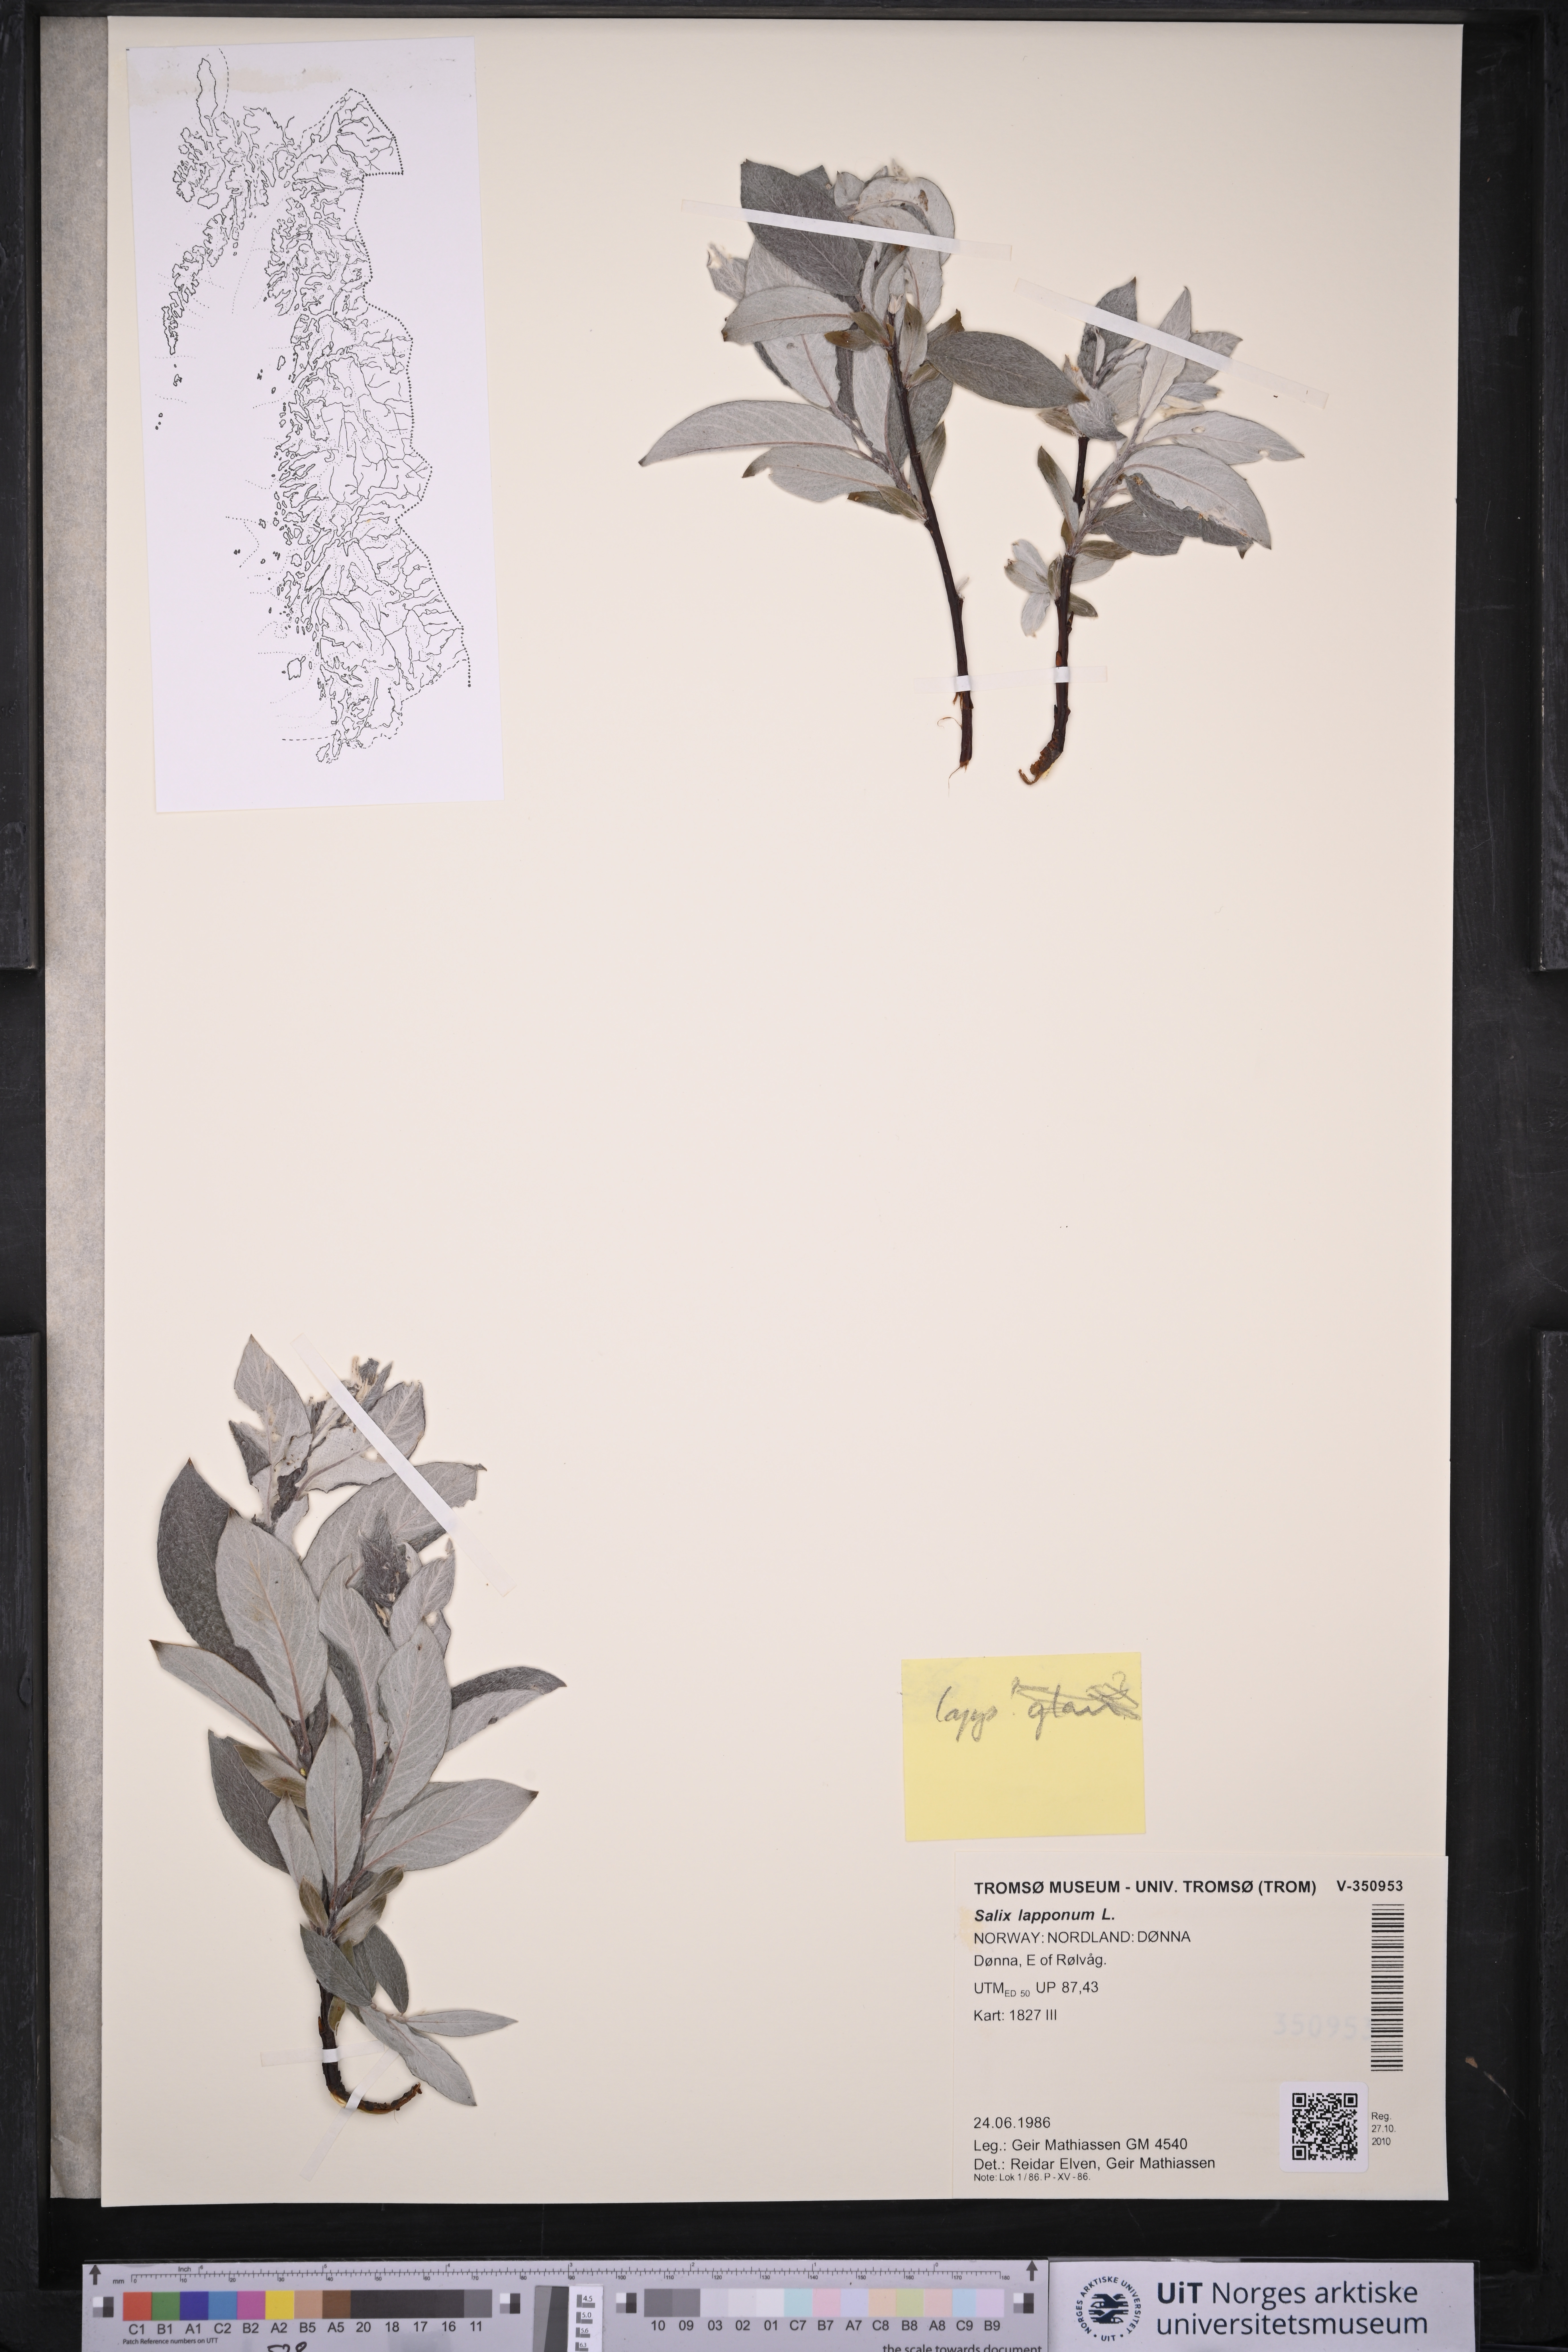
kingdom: Plantae
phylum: Tracheophyta
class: Magnoliopsida
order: Malpighiales
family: Salicaceae
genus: Salix
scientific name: Salix lapponum
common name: Downy willow
